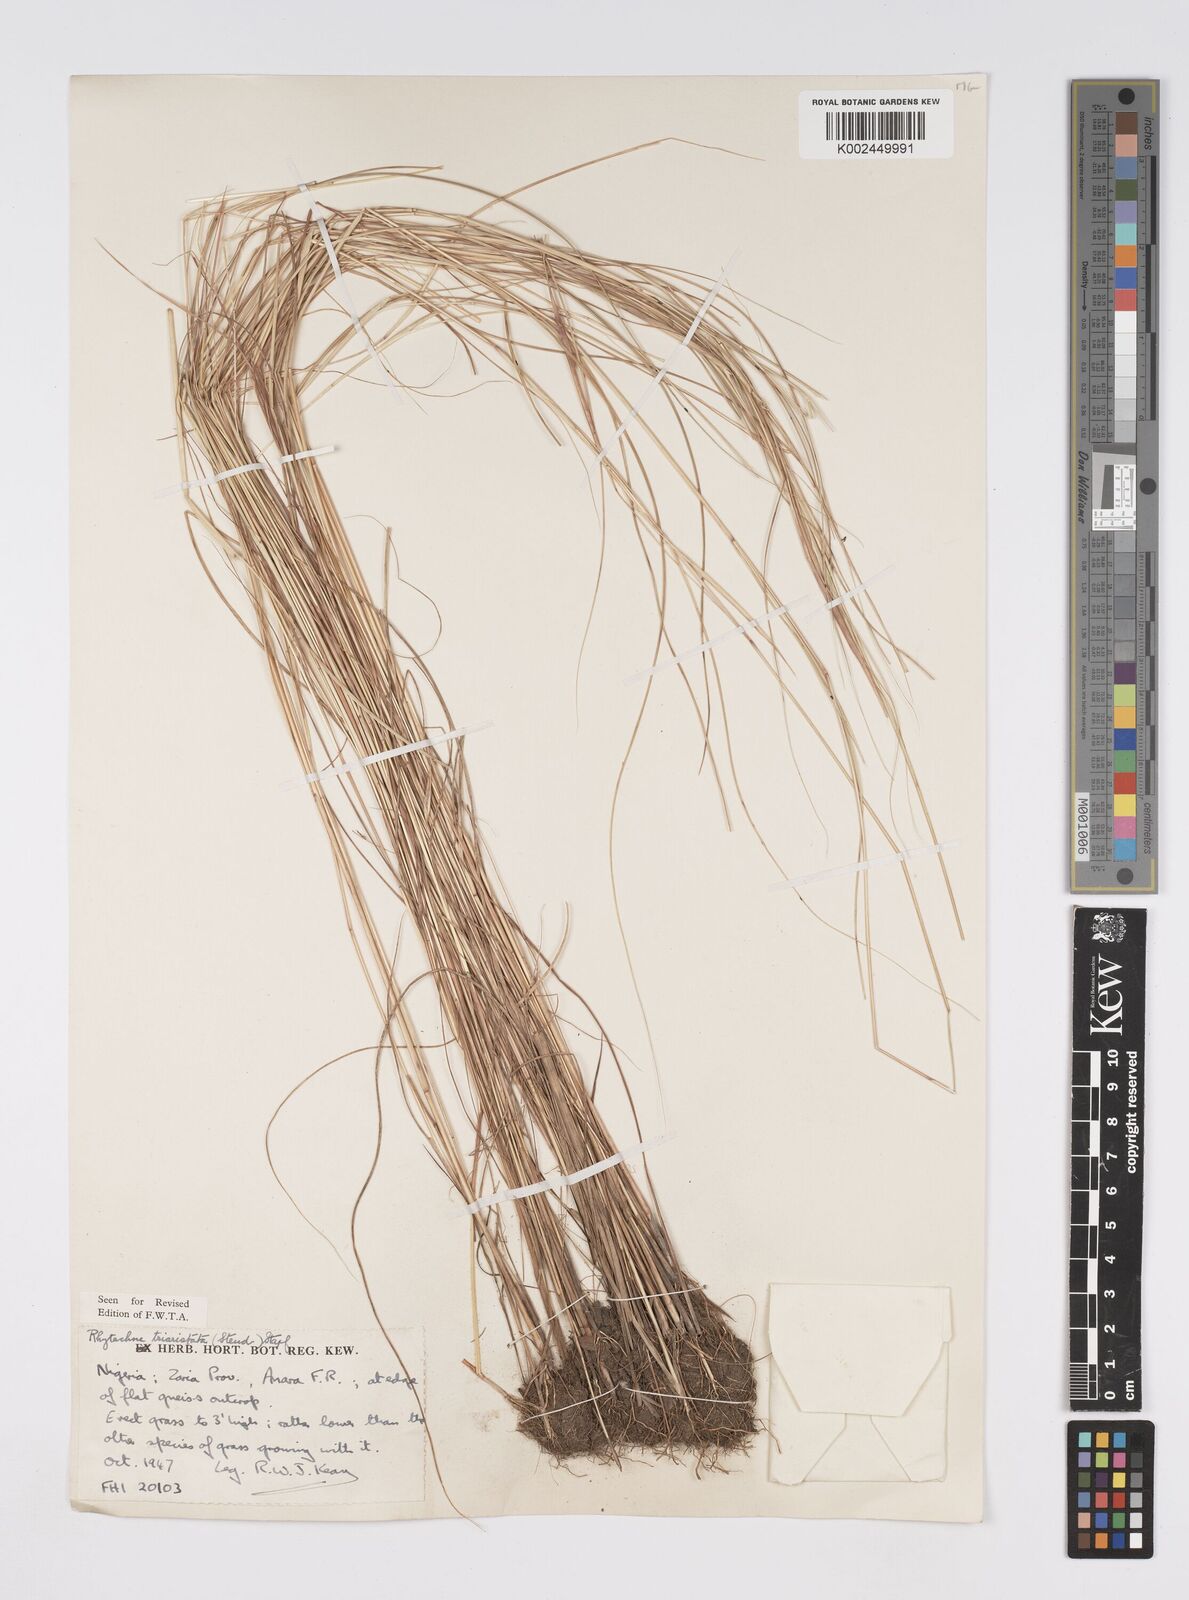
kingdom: Plantae
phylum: Tracheophyta
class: Liliopsida
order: Poales
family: Poaceae
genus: Rhytachne
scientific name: Rhytachne triaristata
